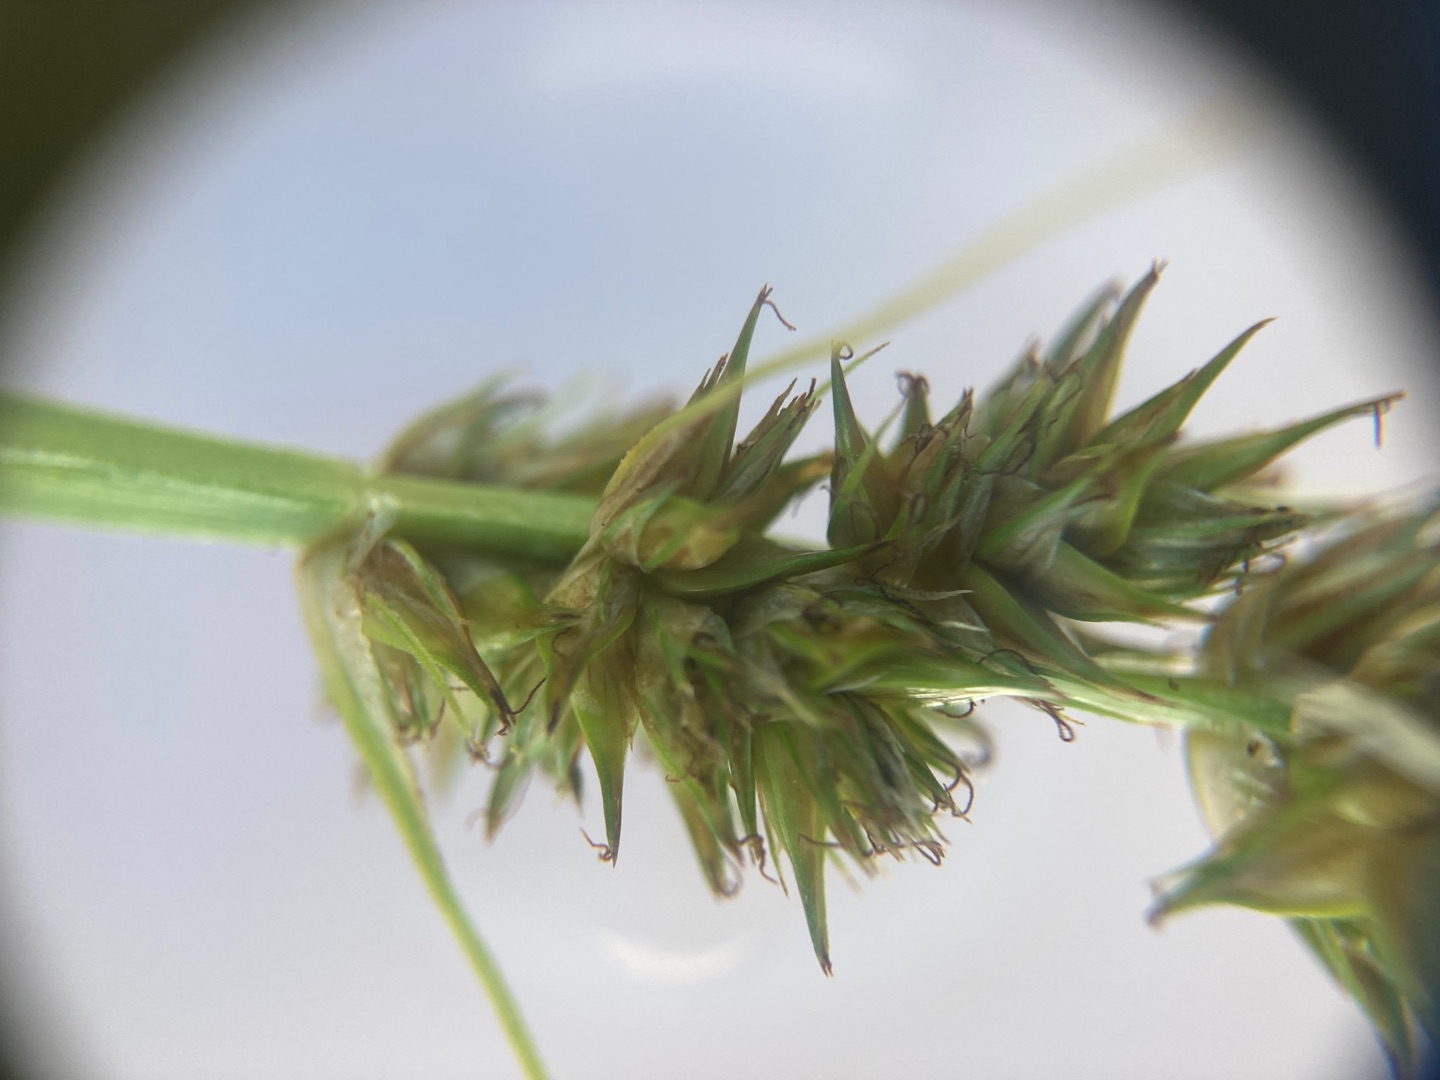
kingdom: Plantae
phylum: Tracheophyta
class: Liliopsida
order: Poales
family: Cyperaceae
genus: Carex
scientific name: Carex otrubae
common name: Sylt-star
